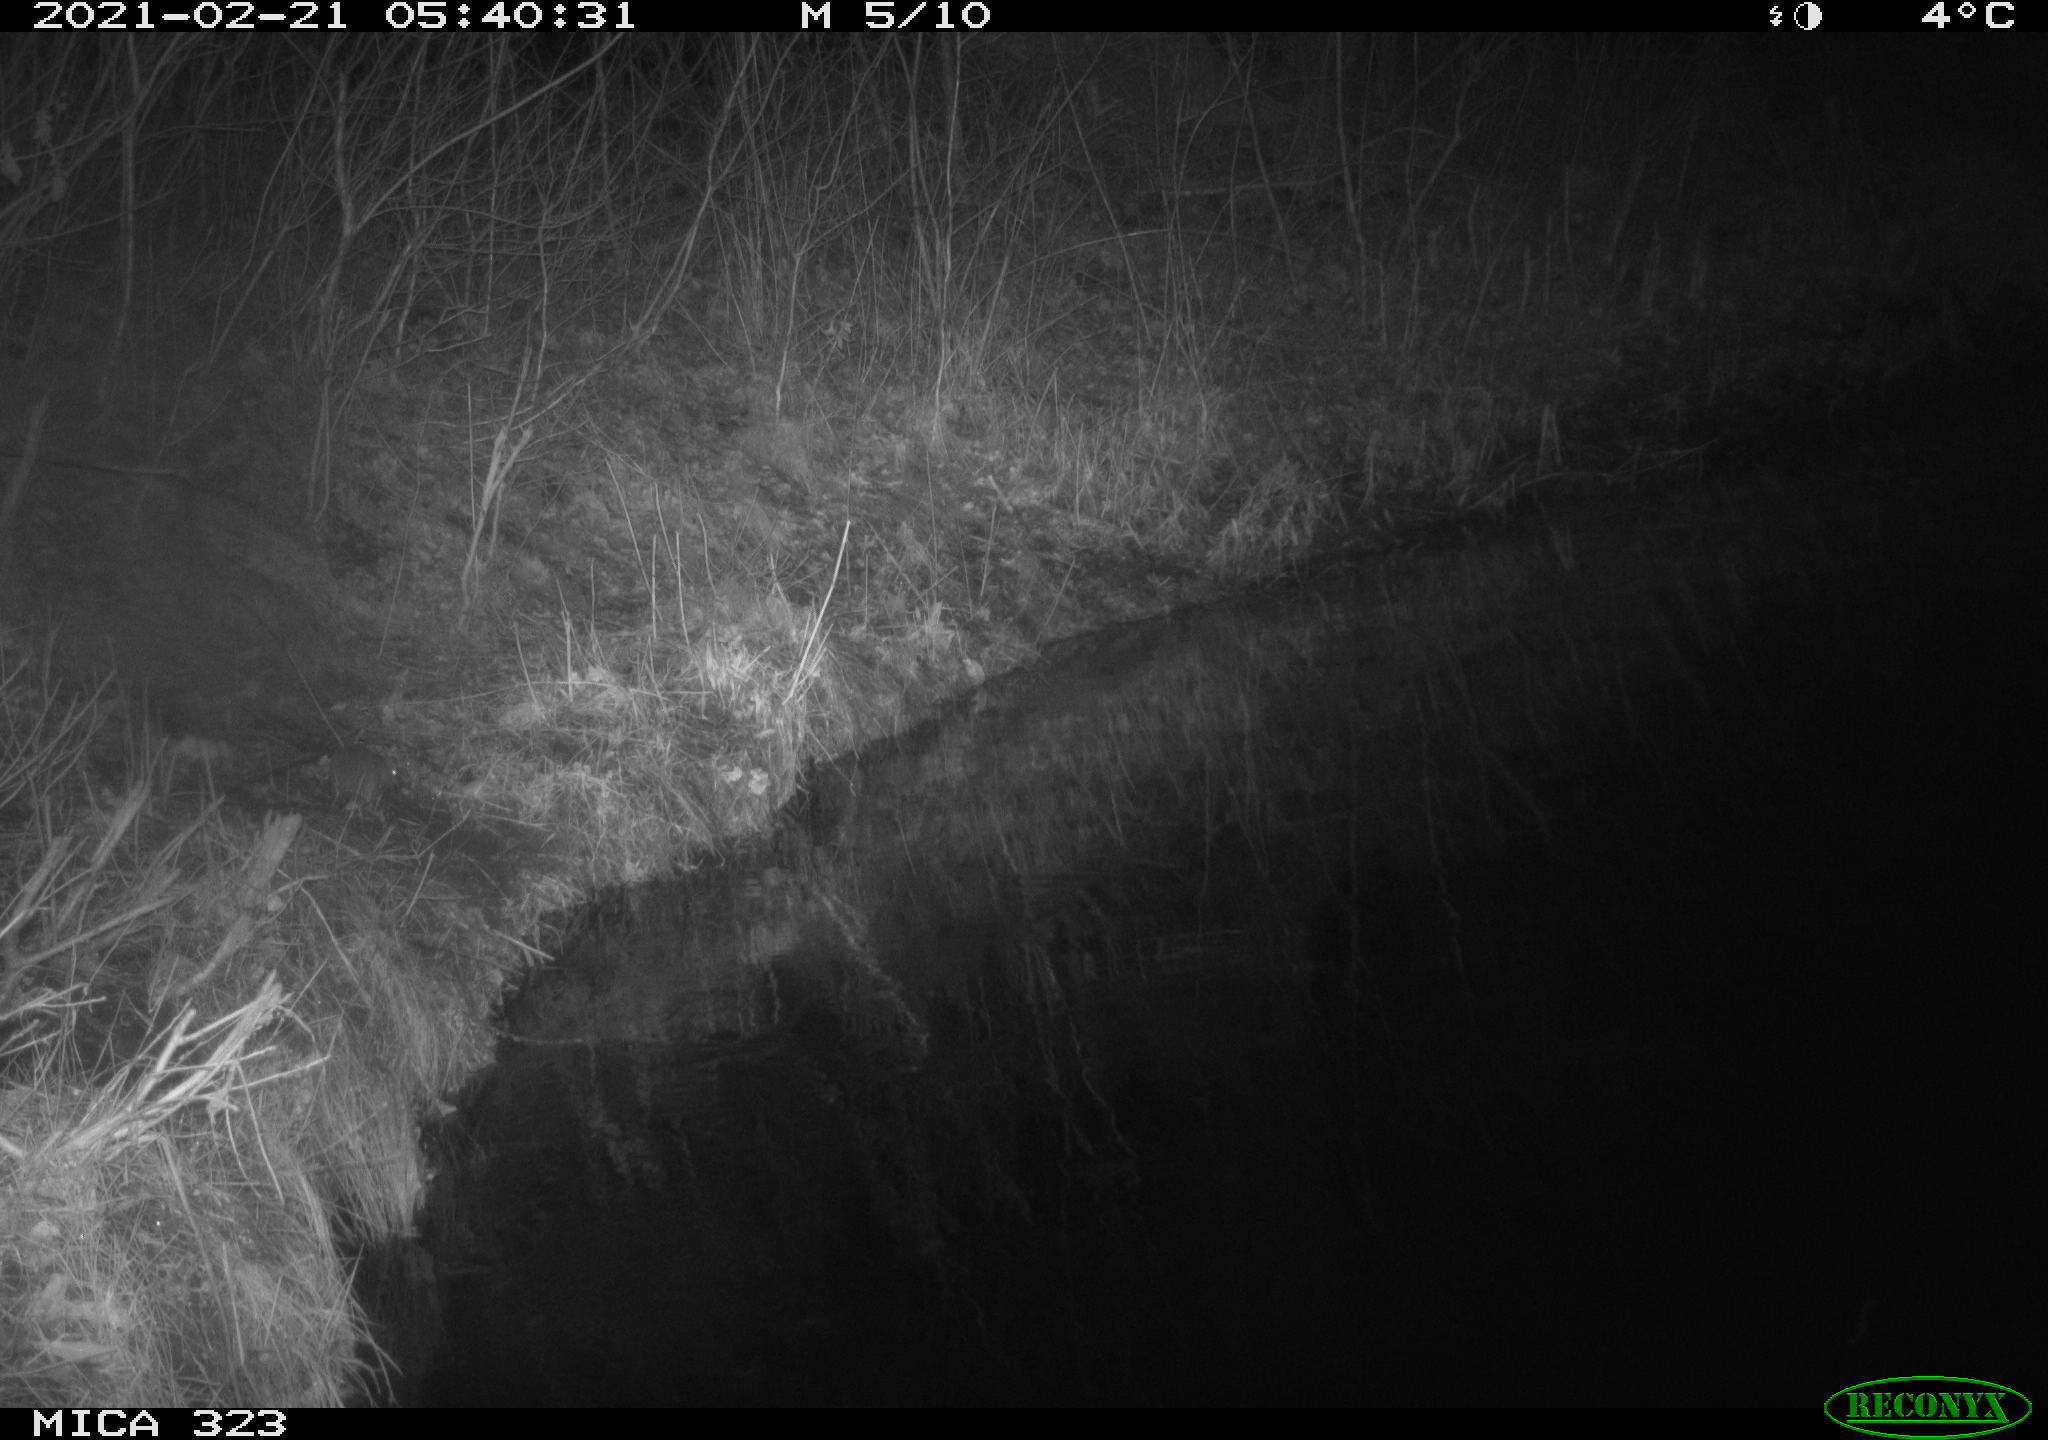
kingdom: Animalia
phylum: Chordata
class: Mammalia
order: Rodentia
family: Muridae
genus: Rattus
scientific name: Rattus norvegicus
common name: Brown rat
